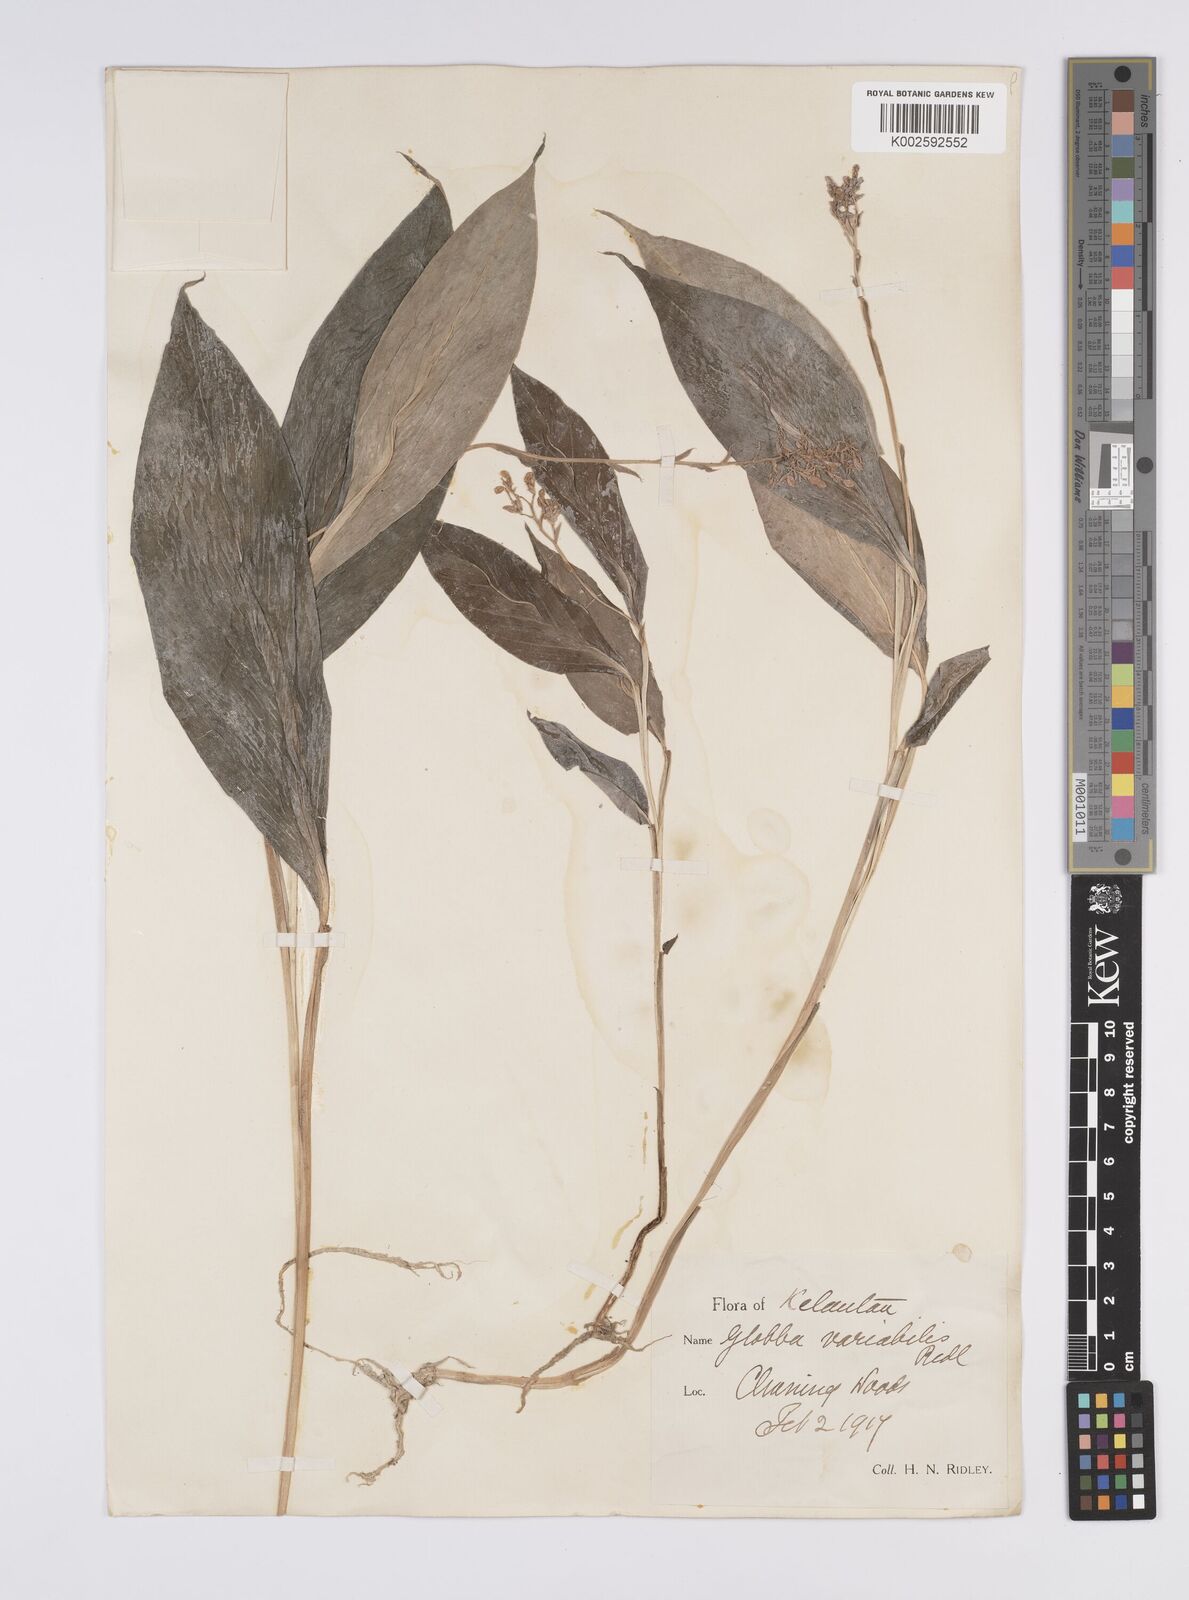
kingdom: Plantae
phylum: Tracheophyta
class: Liliopsida
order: Zingiberales
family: Zingiberaceae
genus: Globba
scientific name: Globba variabilis
